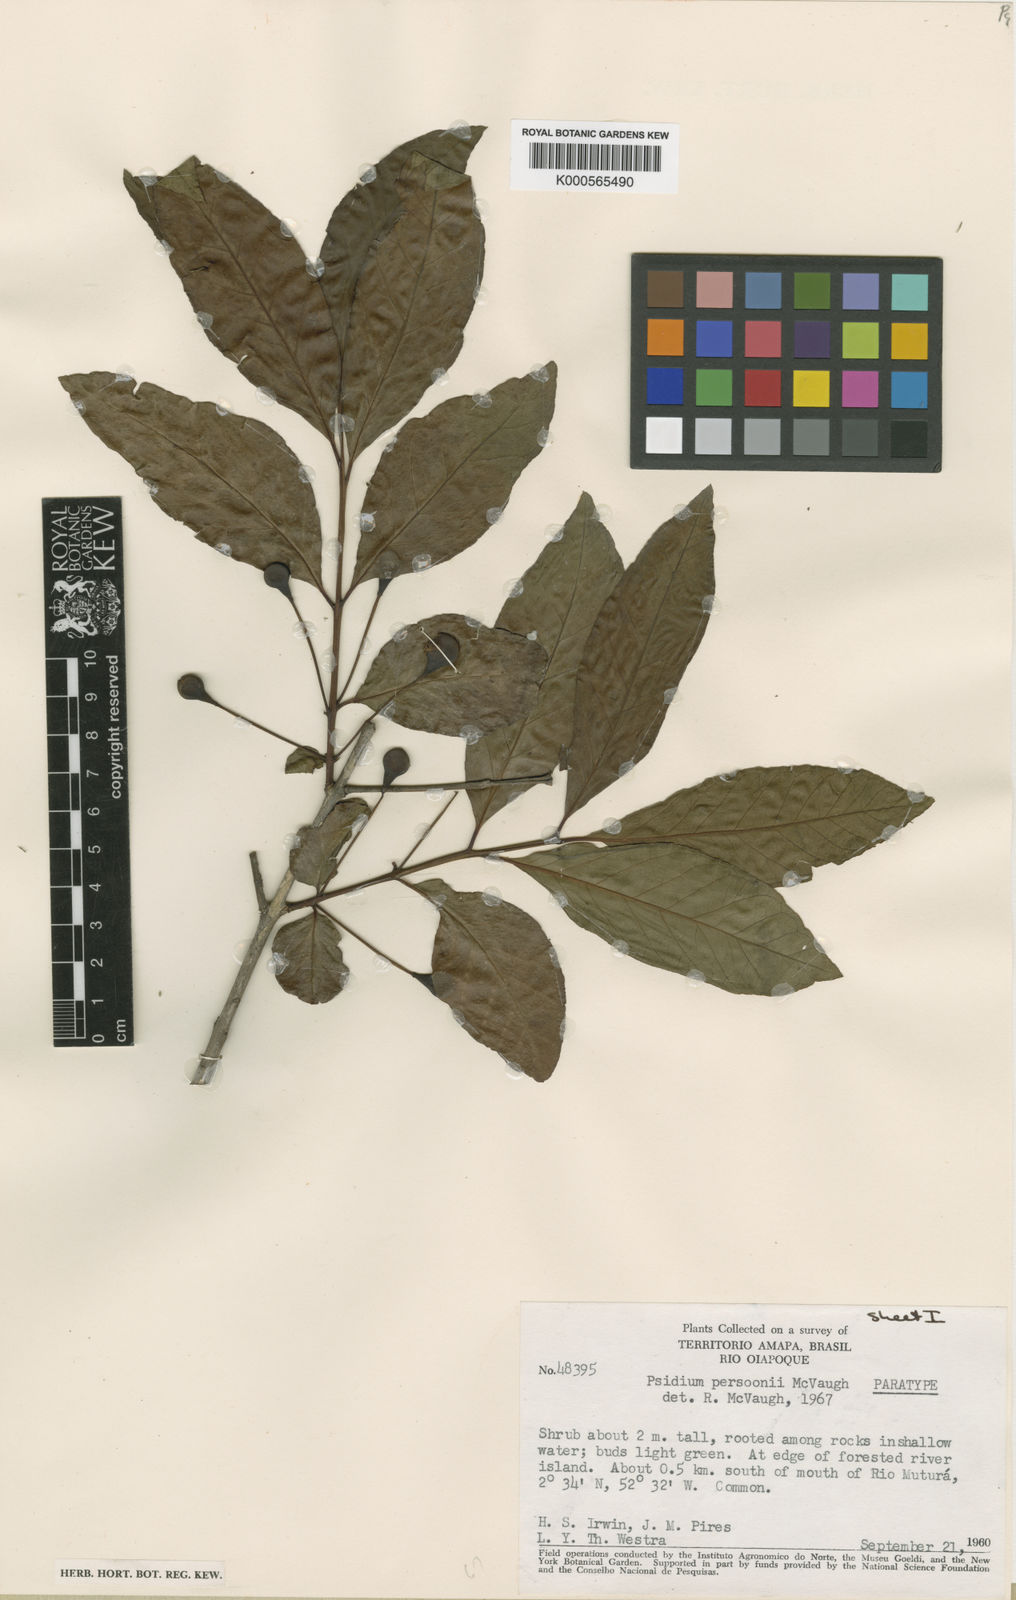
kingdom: Plantae
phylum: Tracheophyta
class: Magnoliopsida
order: Myrtales
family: Myrtaceae
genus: Psidium
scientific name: Psidium acutangulum
